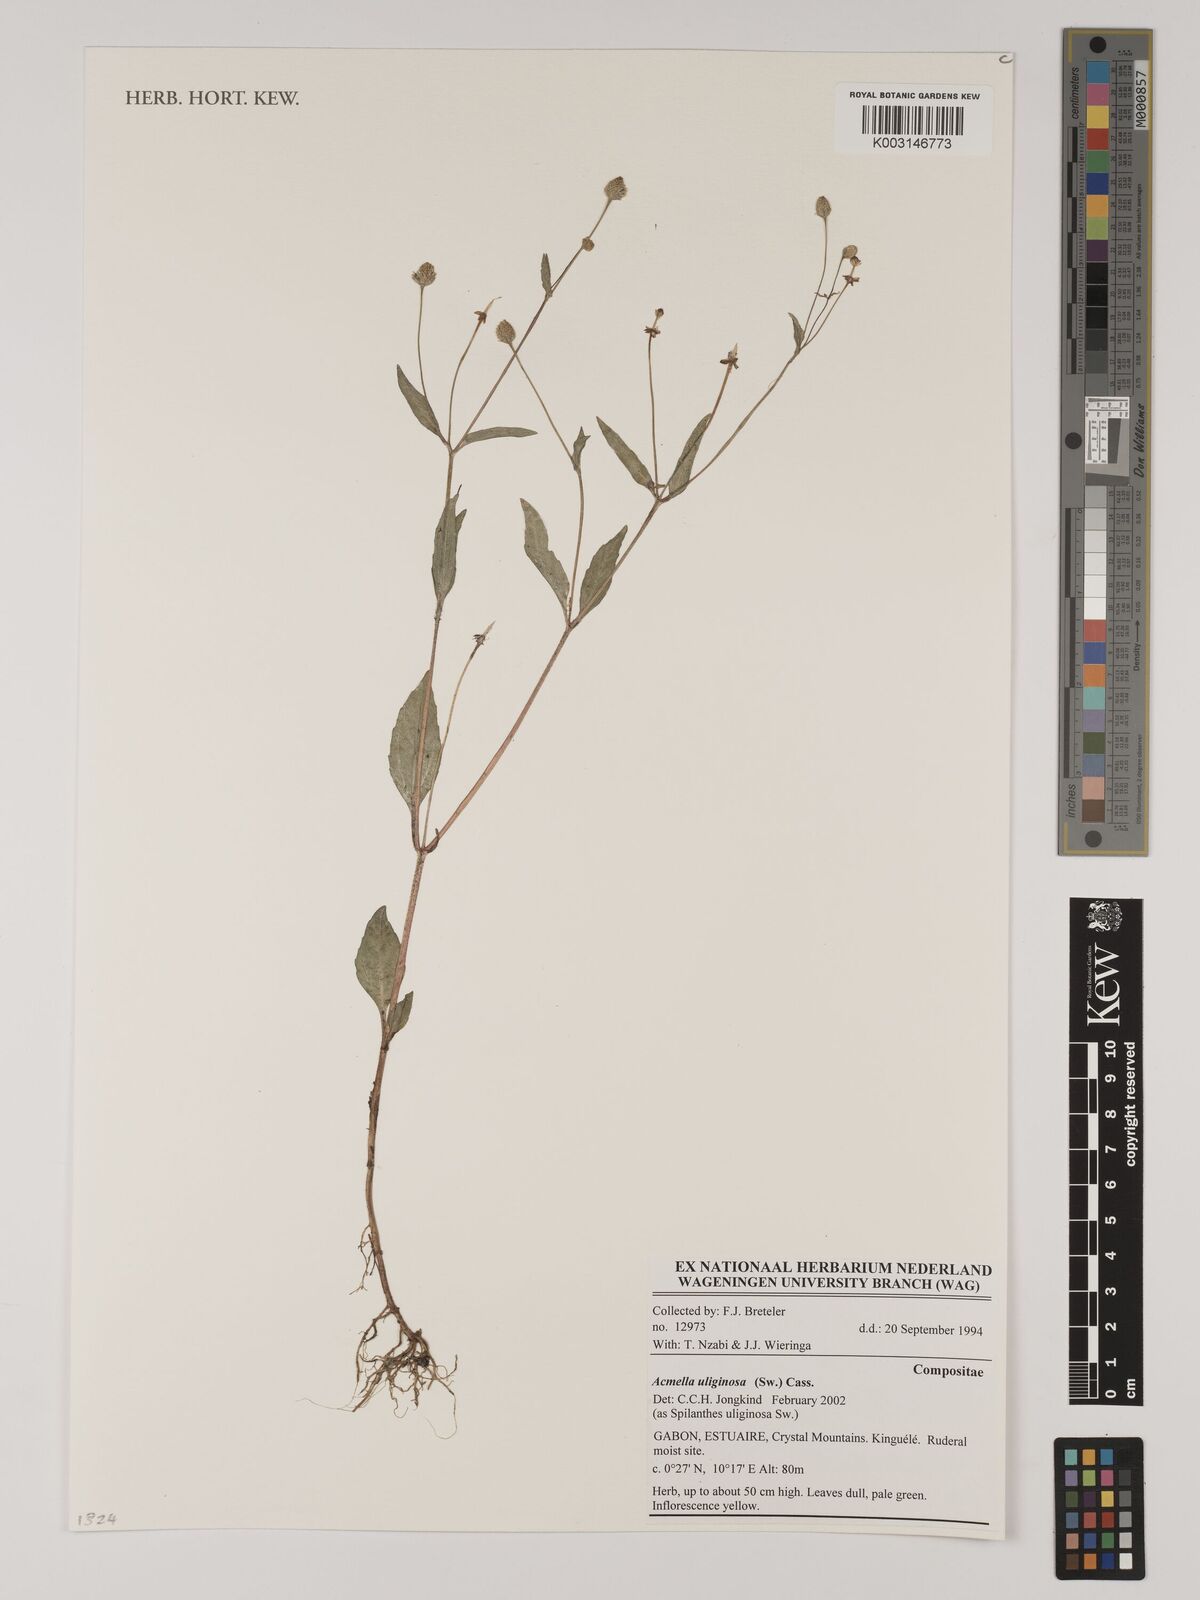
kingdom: Plantae
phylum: Tracheophyta
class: Magnoliopsida
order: Asterales
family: Asteraceae
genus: Acmella
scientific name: Acmella uliginosa
